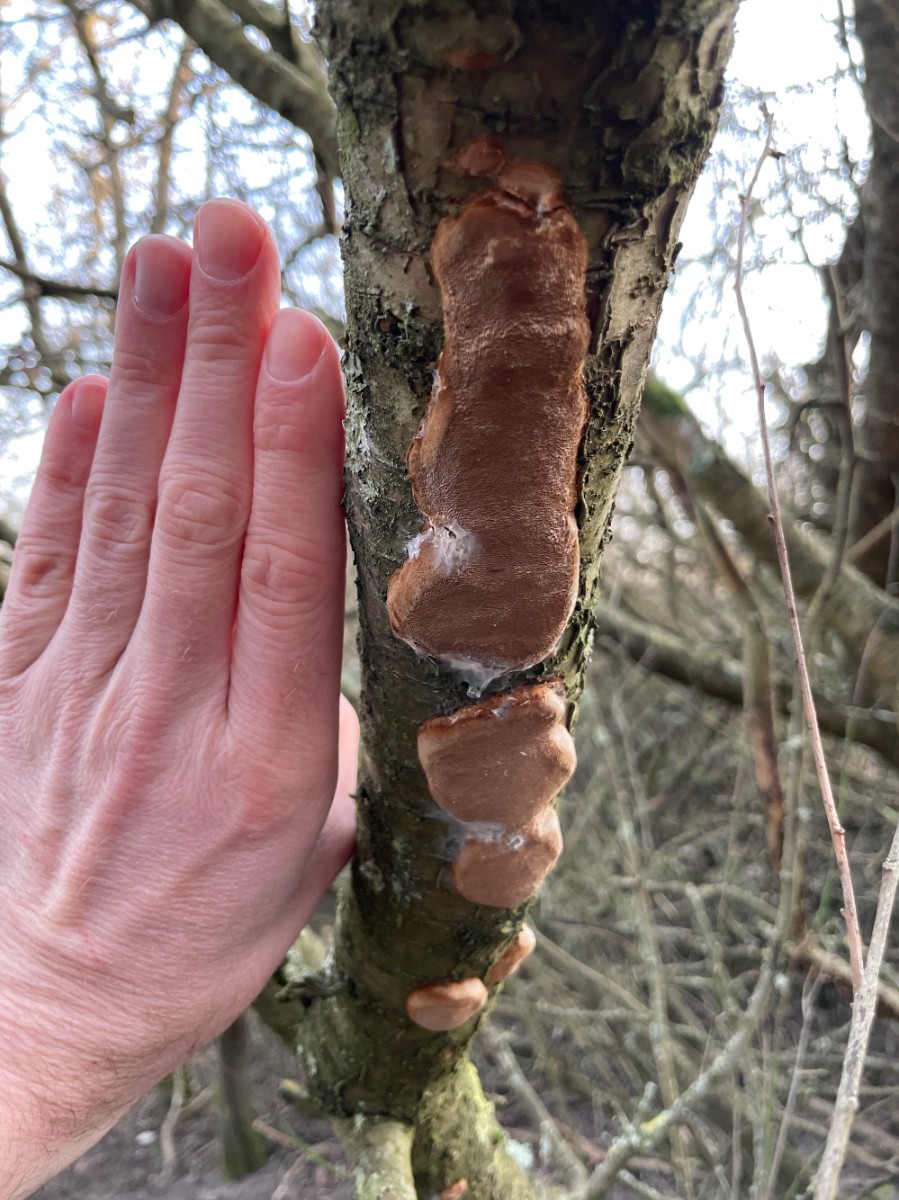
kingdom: Fungi
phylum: Basidiomycota
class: Agaricomycetes
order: Hymenochaetales
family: Hymenochaetaceae
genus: Phellinus
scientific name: Phellinus pomaceus
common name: blomme-ildporesvamp
